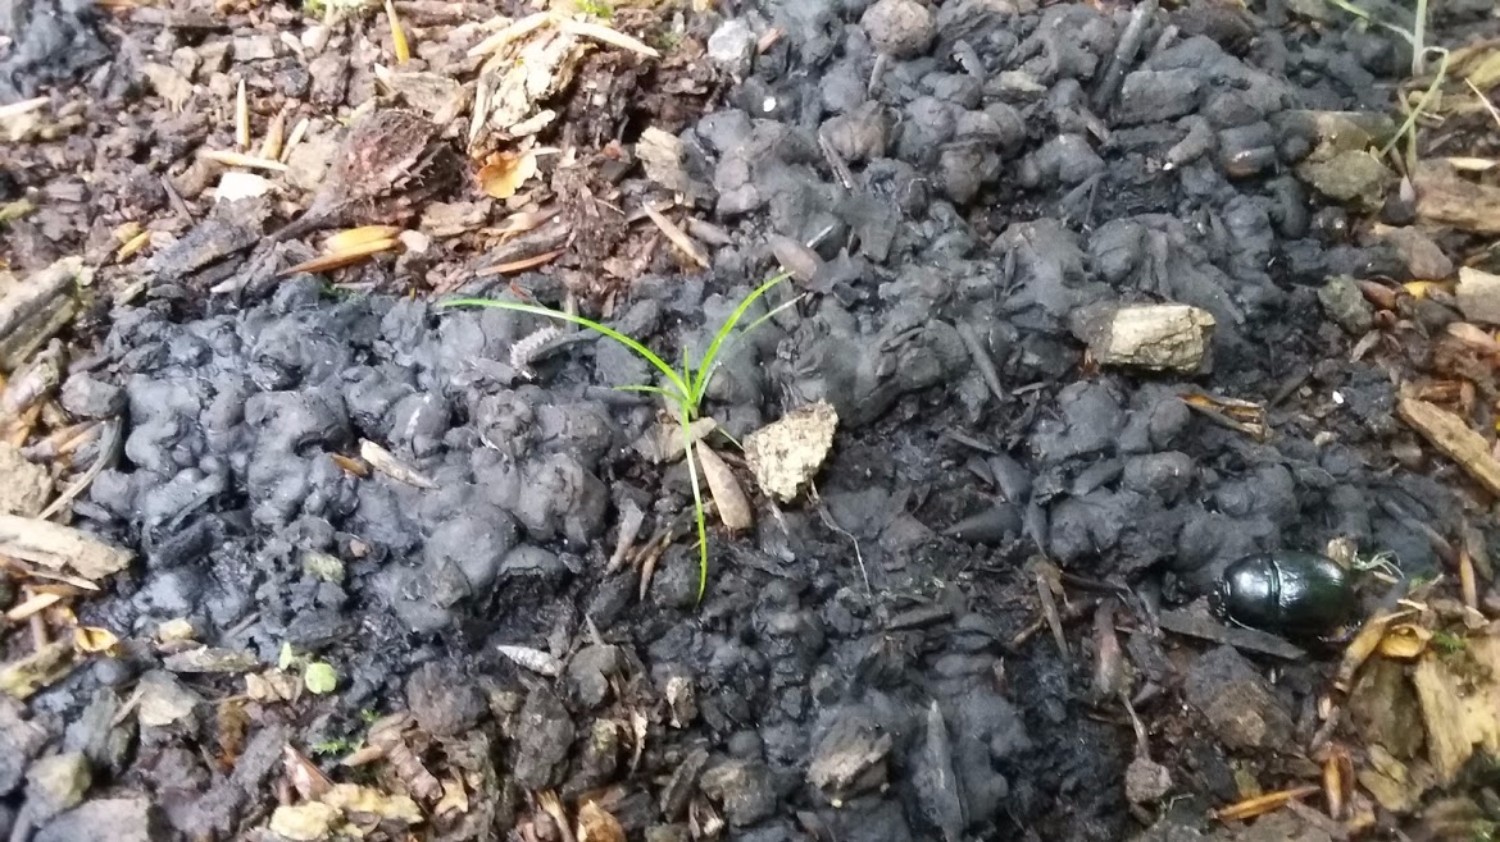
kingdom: Fungi
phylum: Ascomycota
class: Sordariomycetes
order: Xylariales
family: Xylariaceae
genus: Kretzschmaria
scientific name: Kretzschmaria deusta
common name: stor kulsvamp
